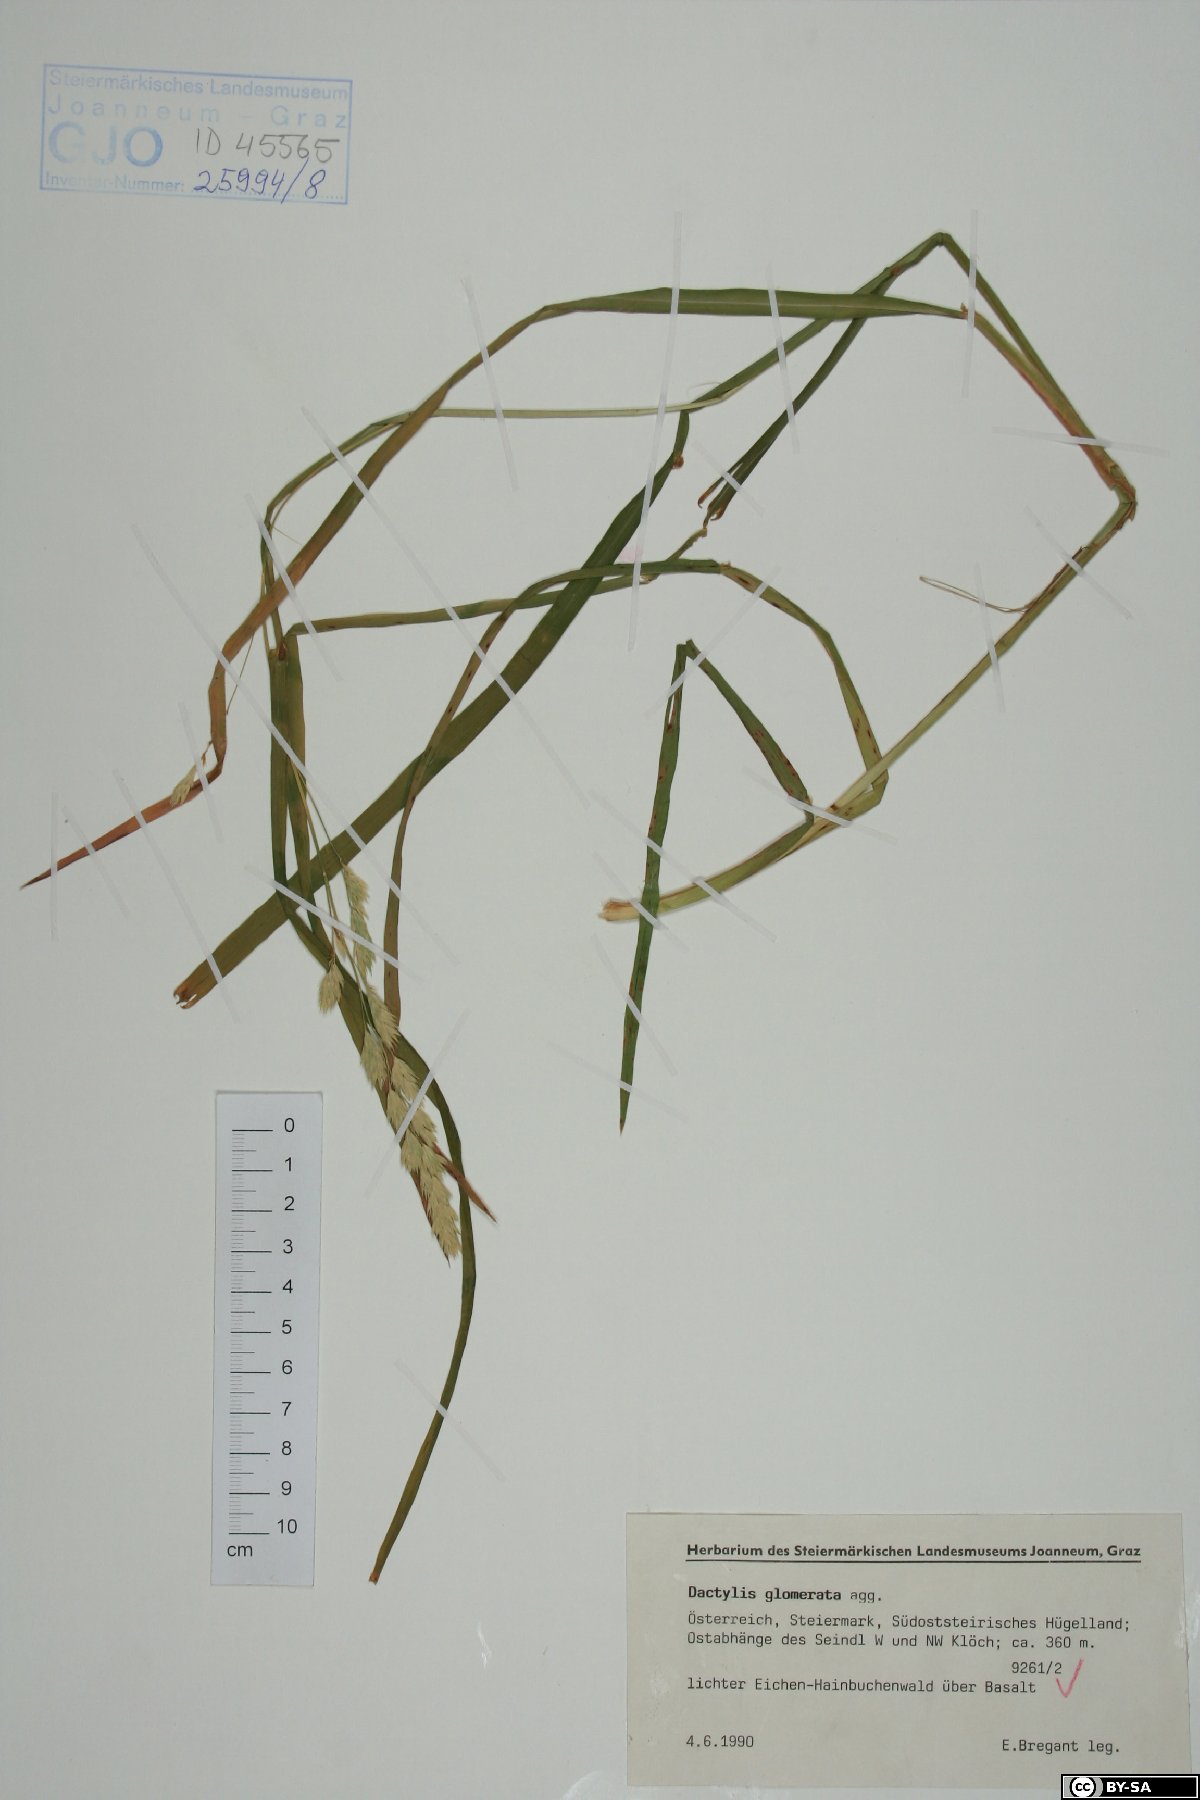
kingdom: Plantae
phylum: Tracheophyta
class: Liliopsida
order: Poales
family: Poaceae
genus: Dactylis
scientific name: Dactylis glomerata
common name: Orchardgrass
